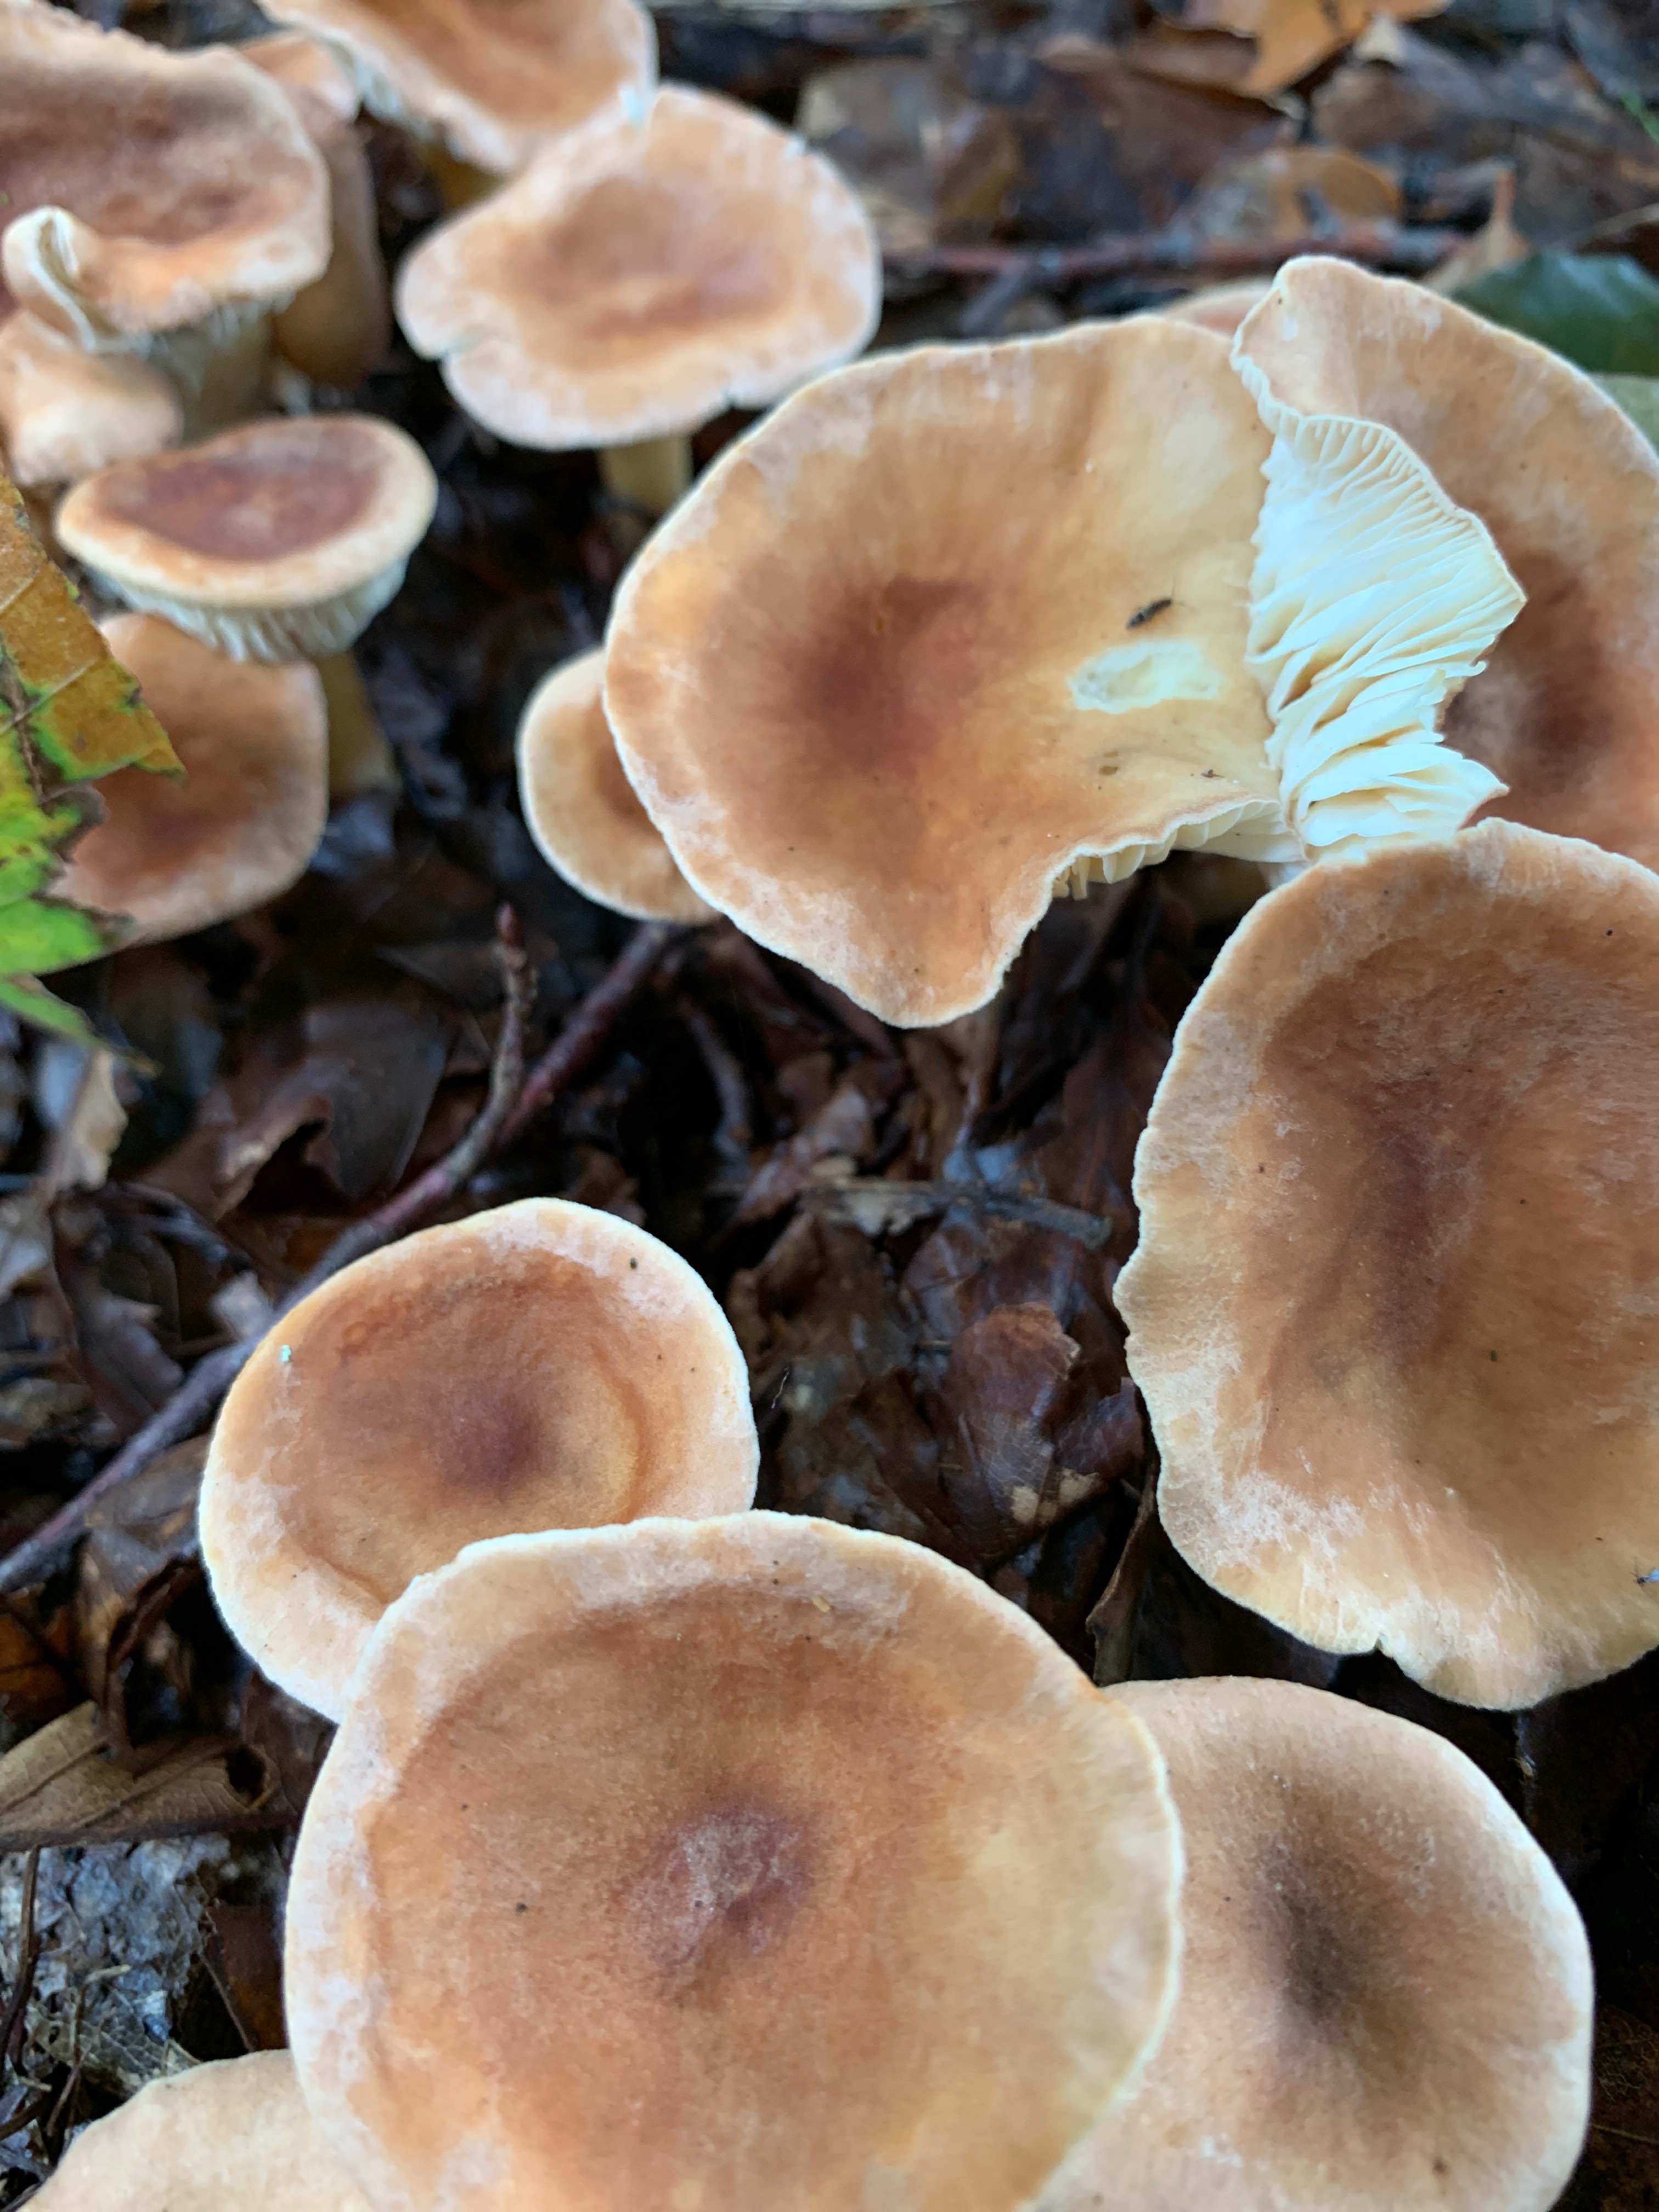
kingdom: Fungi
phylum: Basidiomycota
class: Agaricomycetes
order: Agaricales
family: Tricholomataceae
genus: Infundibulicybe
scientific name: Infundibulicybe
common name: tragthat
